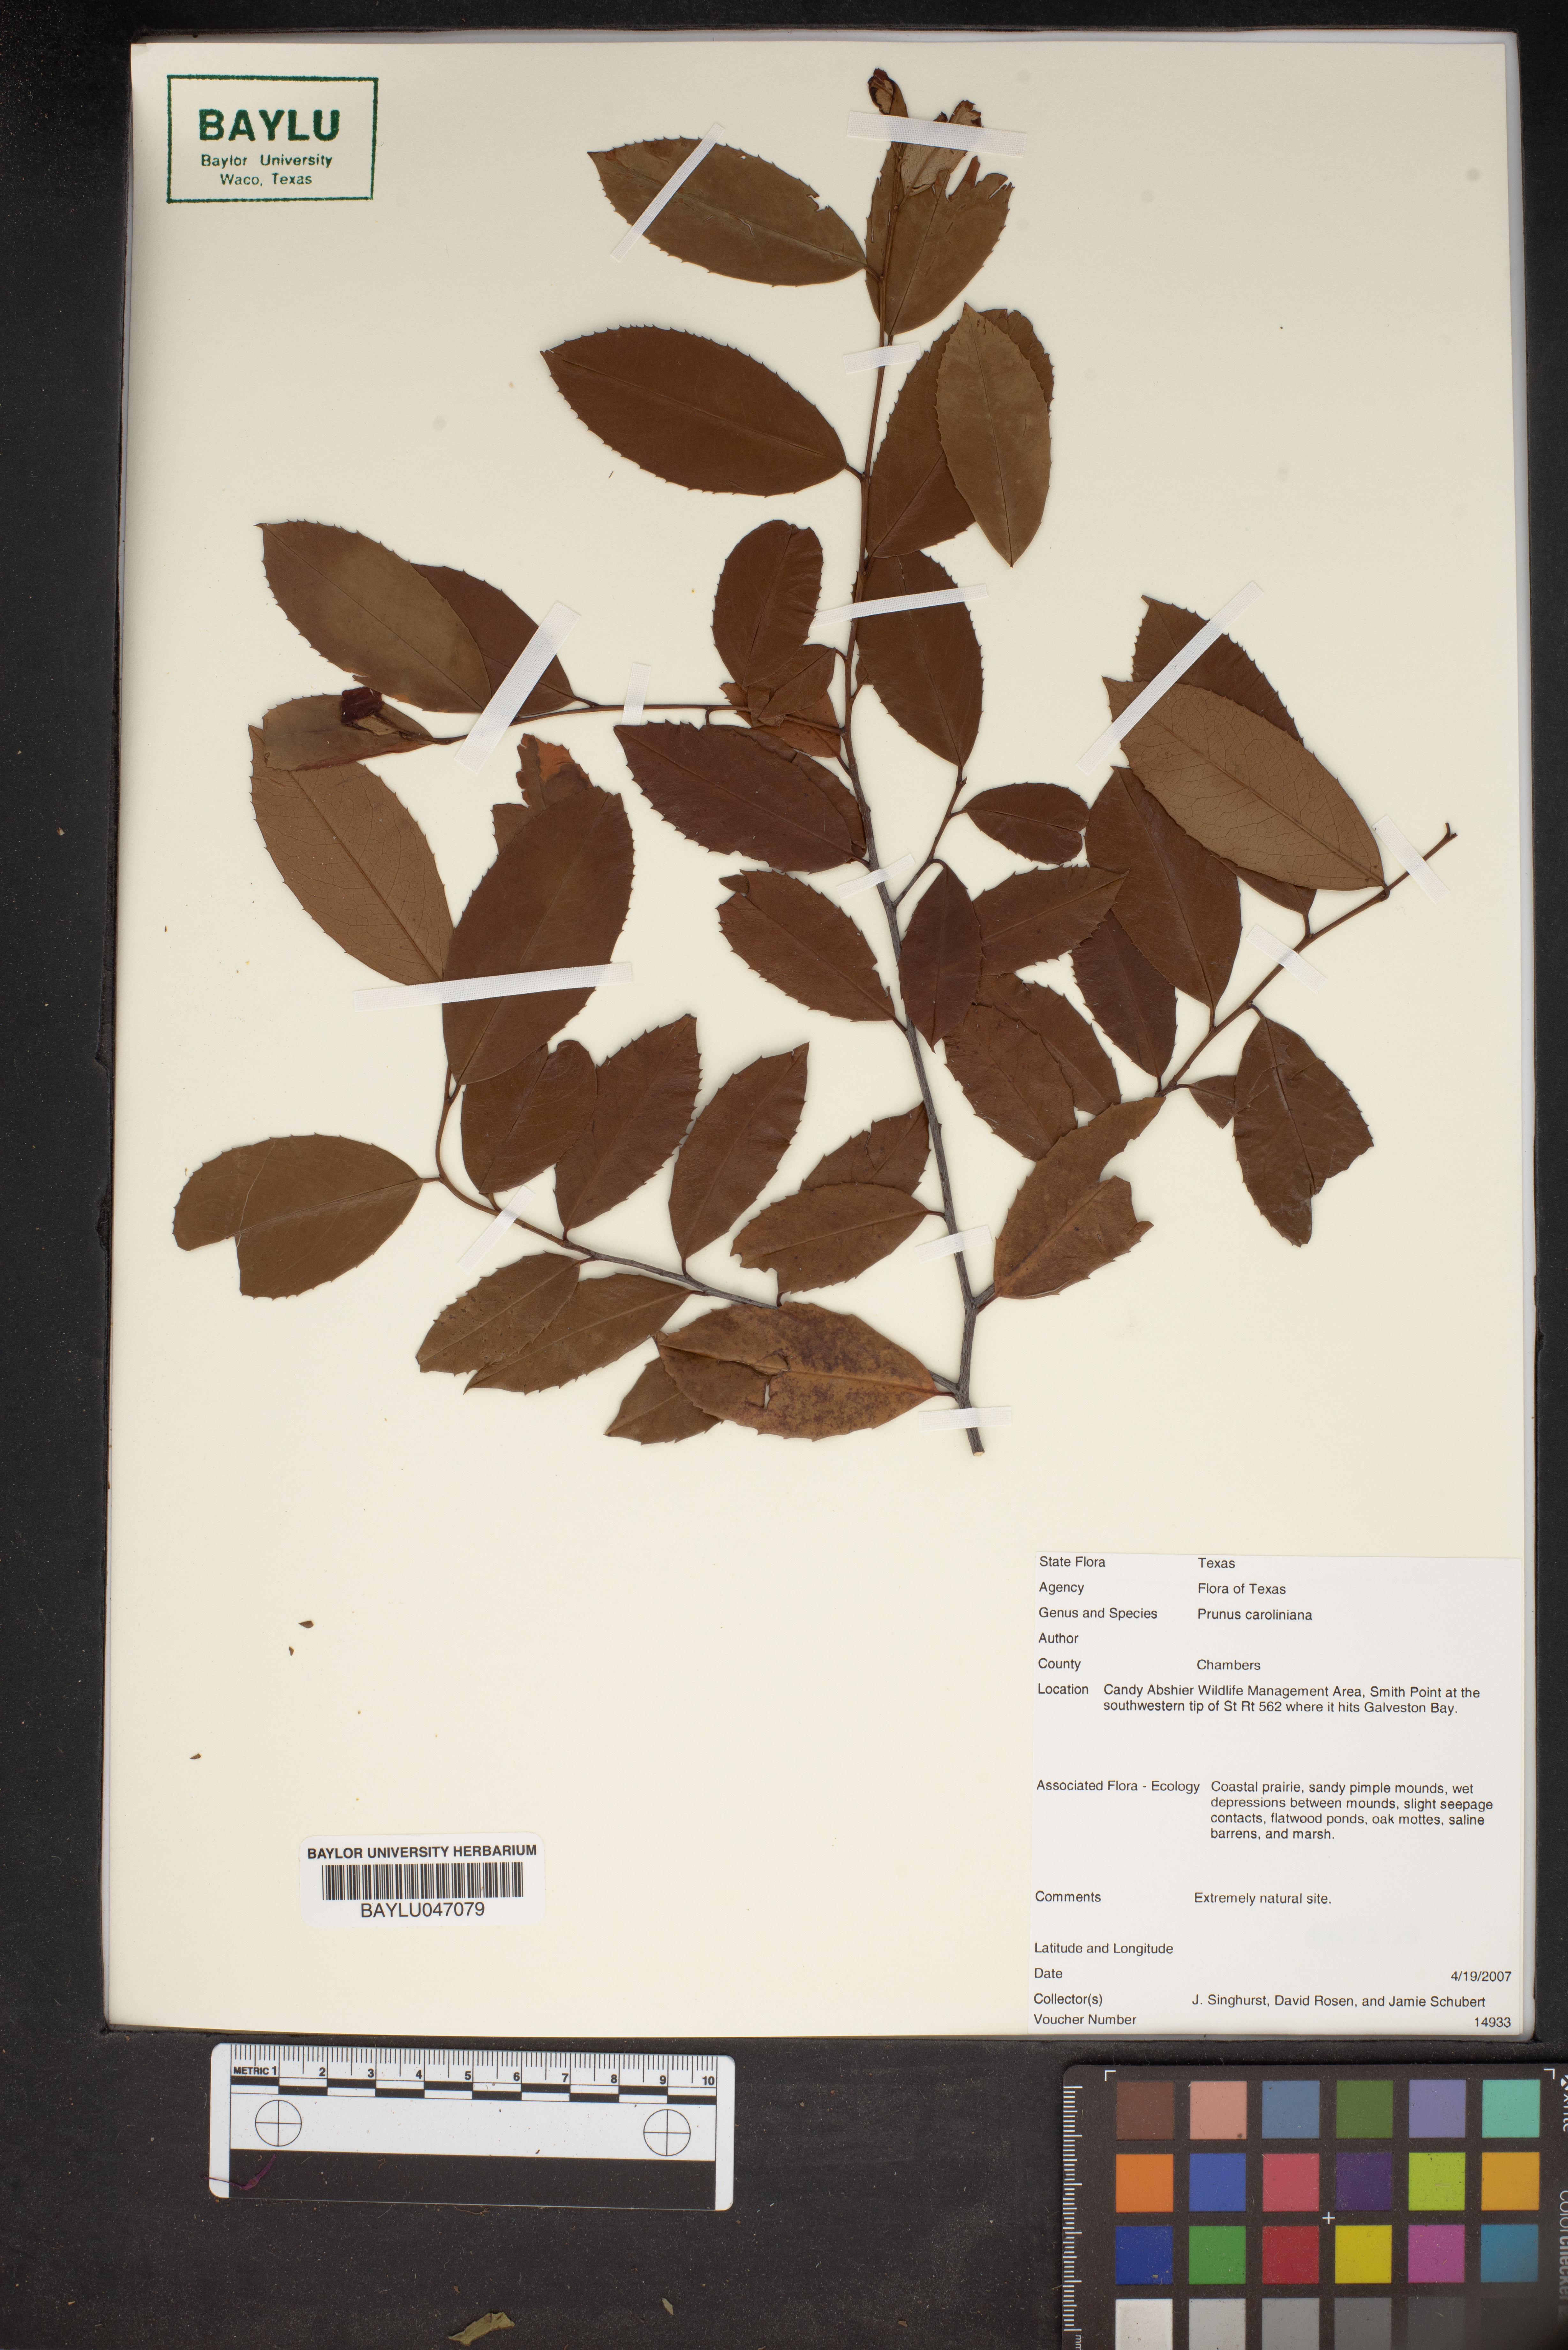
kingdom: Plantae
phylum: Tracheophyta
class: Magnoliopsida
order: Rosales
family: Rosaceae
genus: Prunus
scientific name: Prunus caroliniana
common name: Carolina laurel cherry
